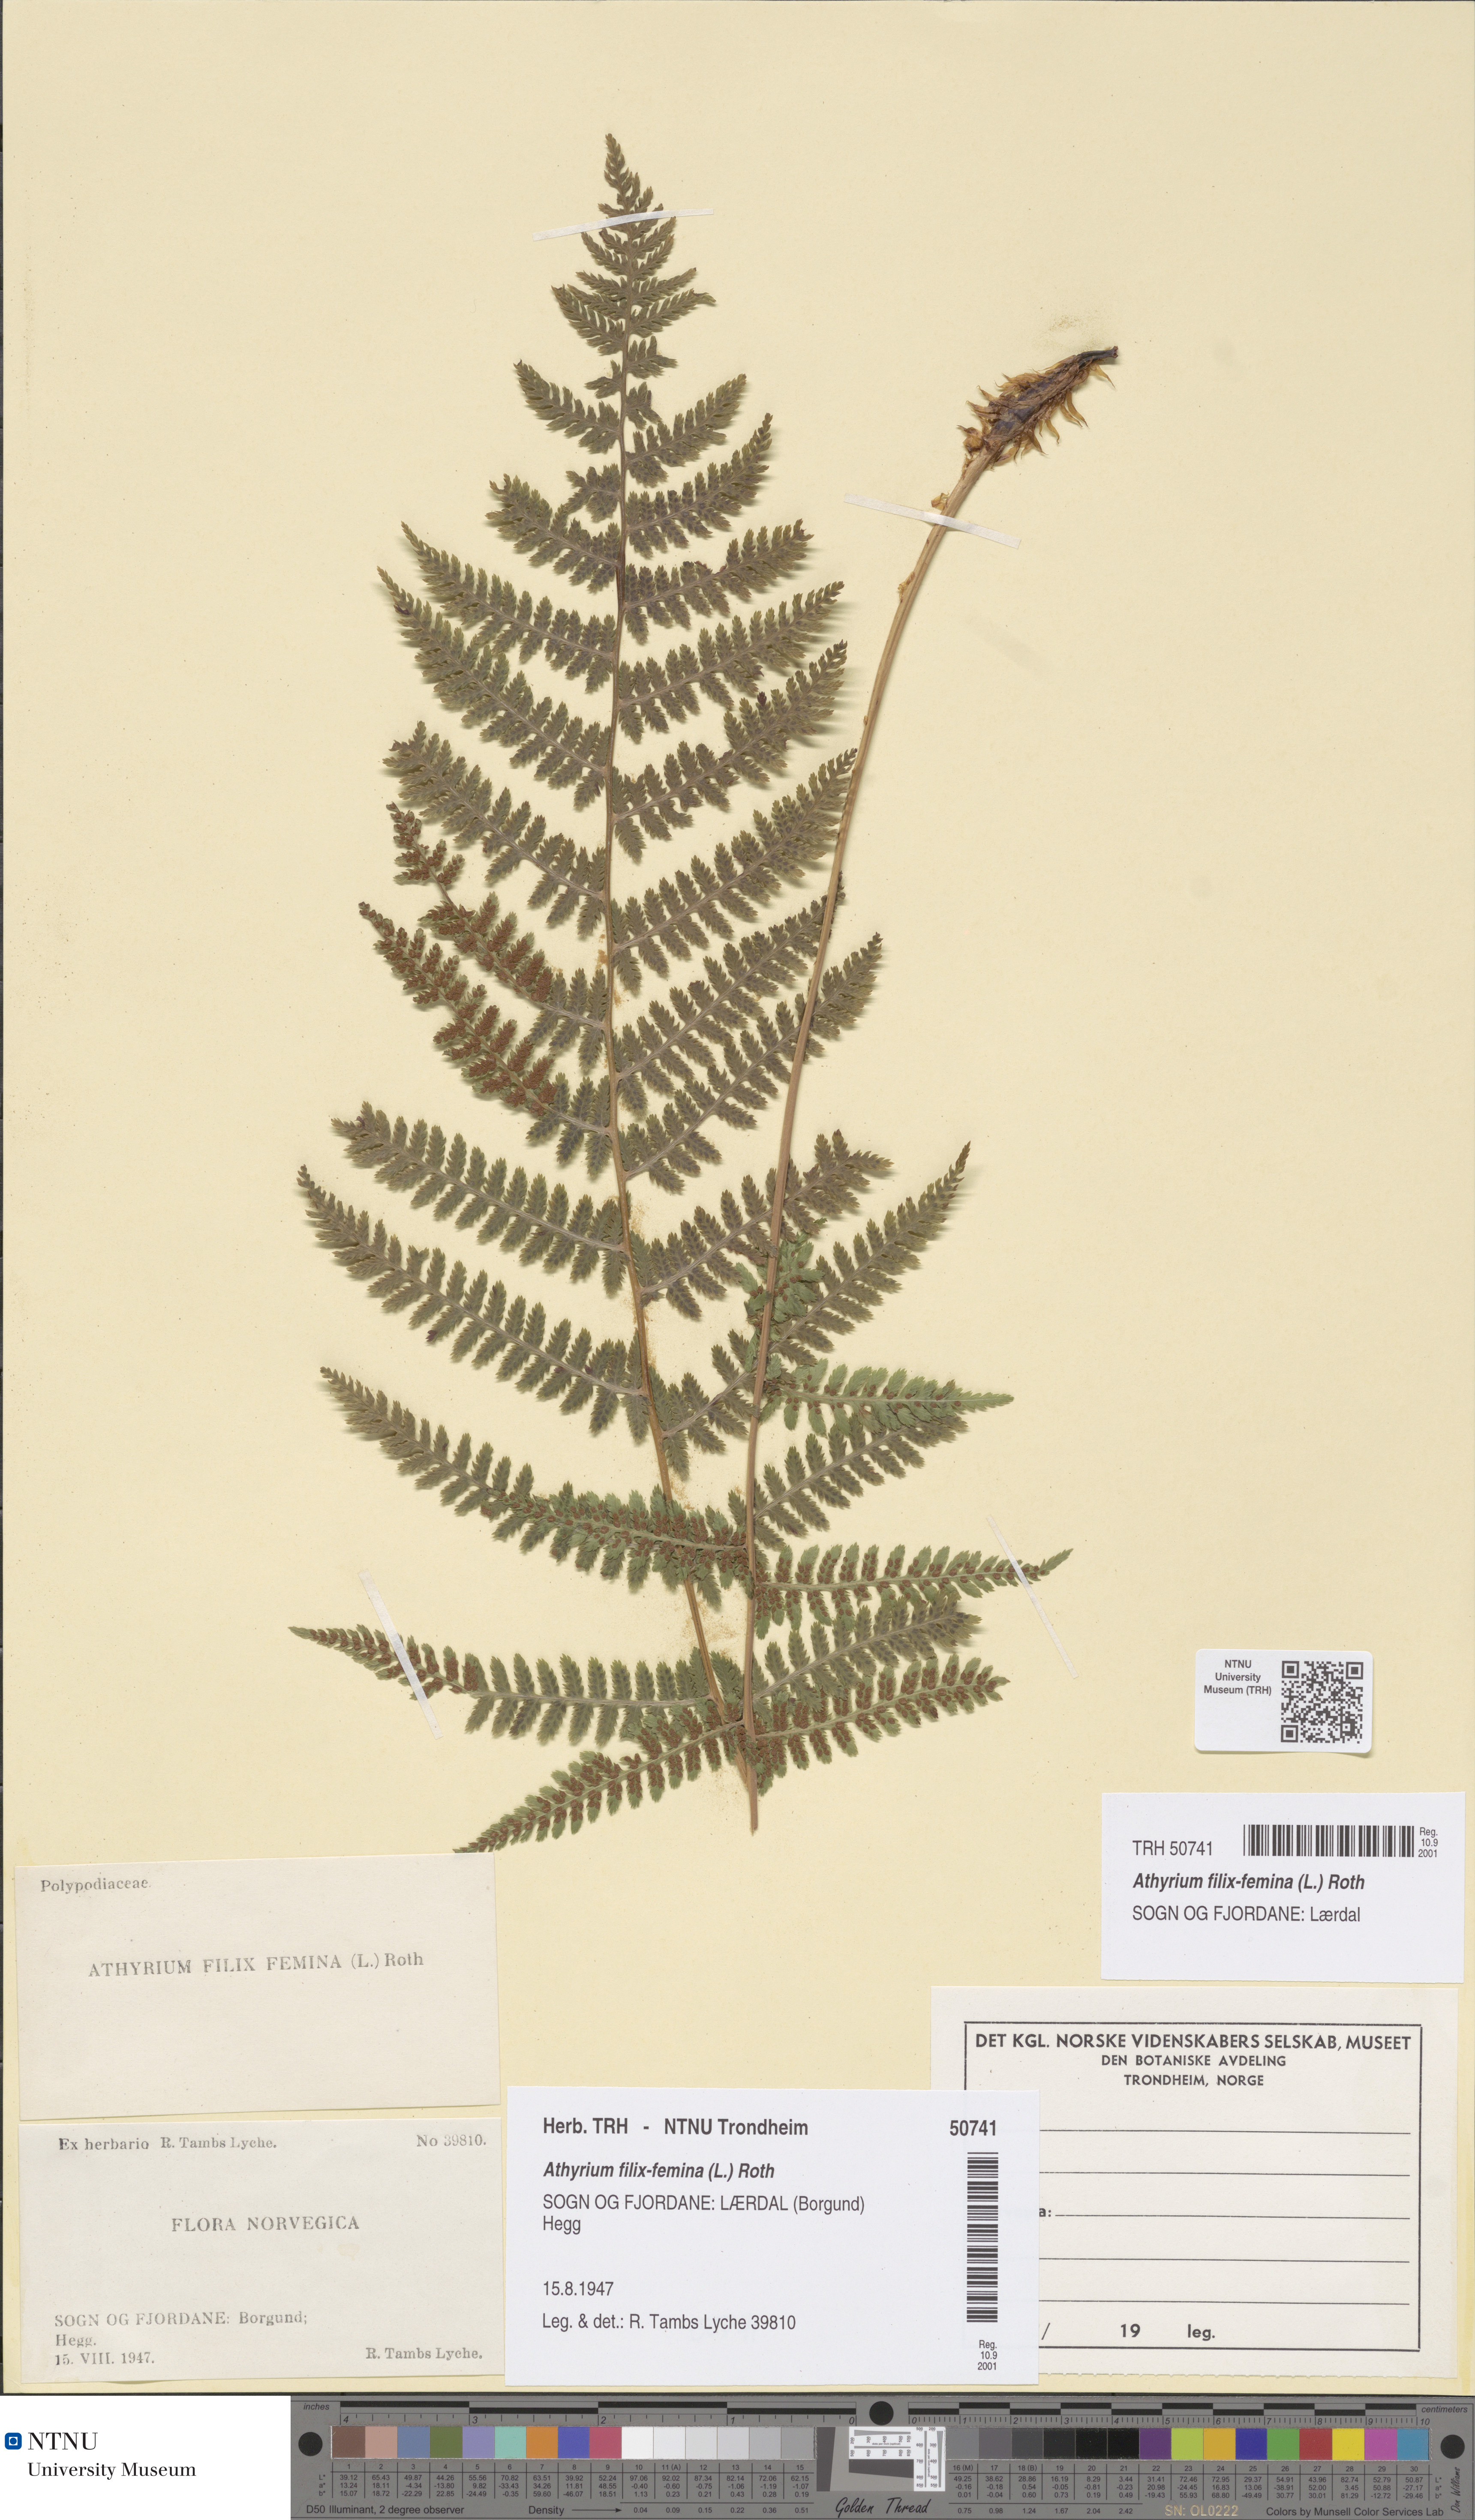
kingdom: Plantae
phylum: Tracheophyta
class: Polypodiopsida
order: Polypodiales
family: Athyriaceae
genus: Athyrium
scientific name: Athyrium filix-femina
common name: Lady fern
